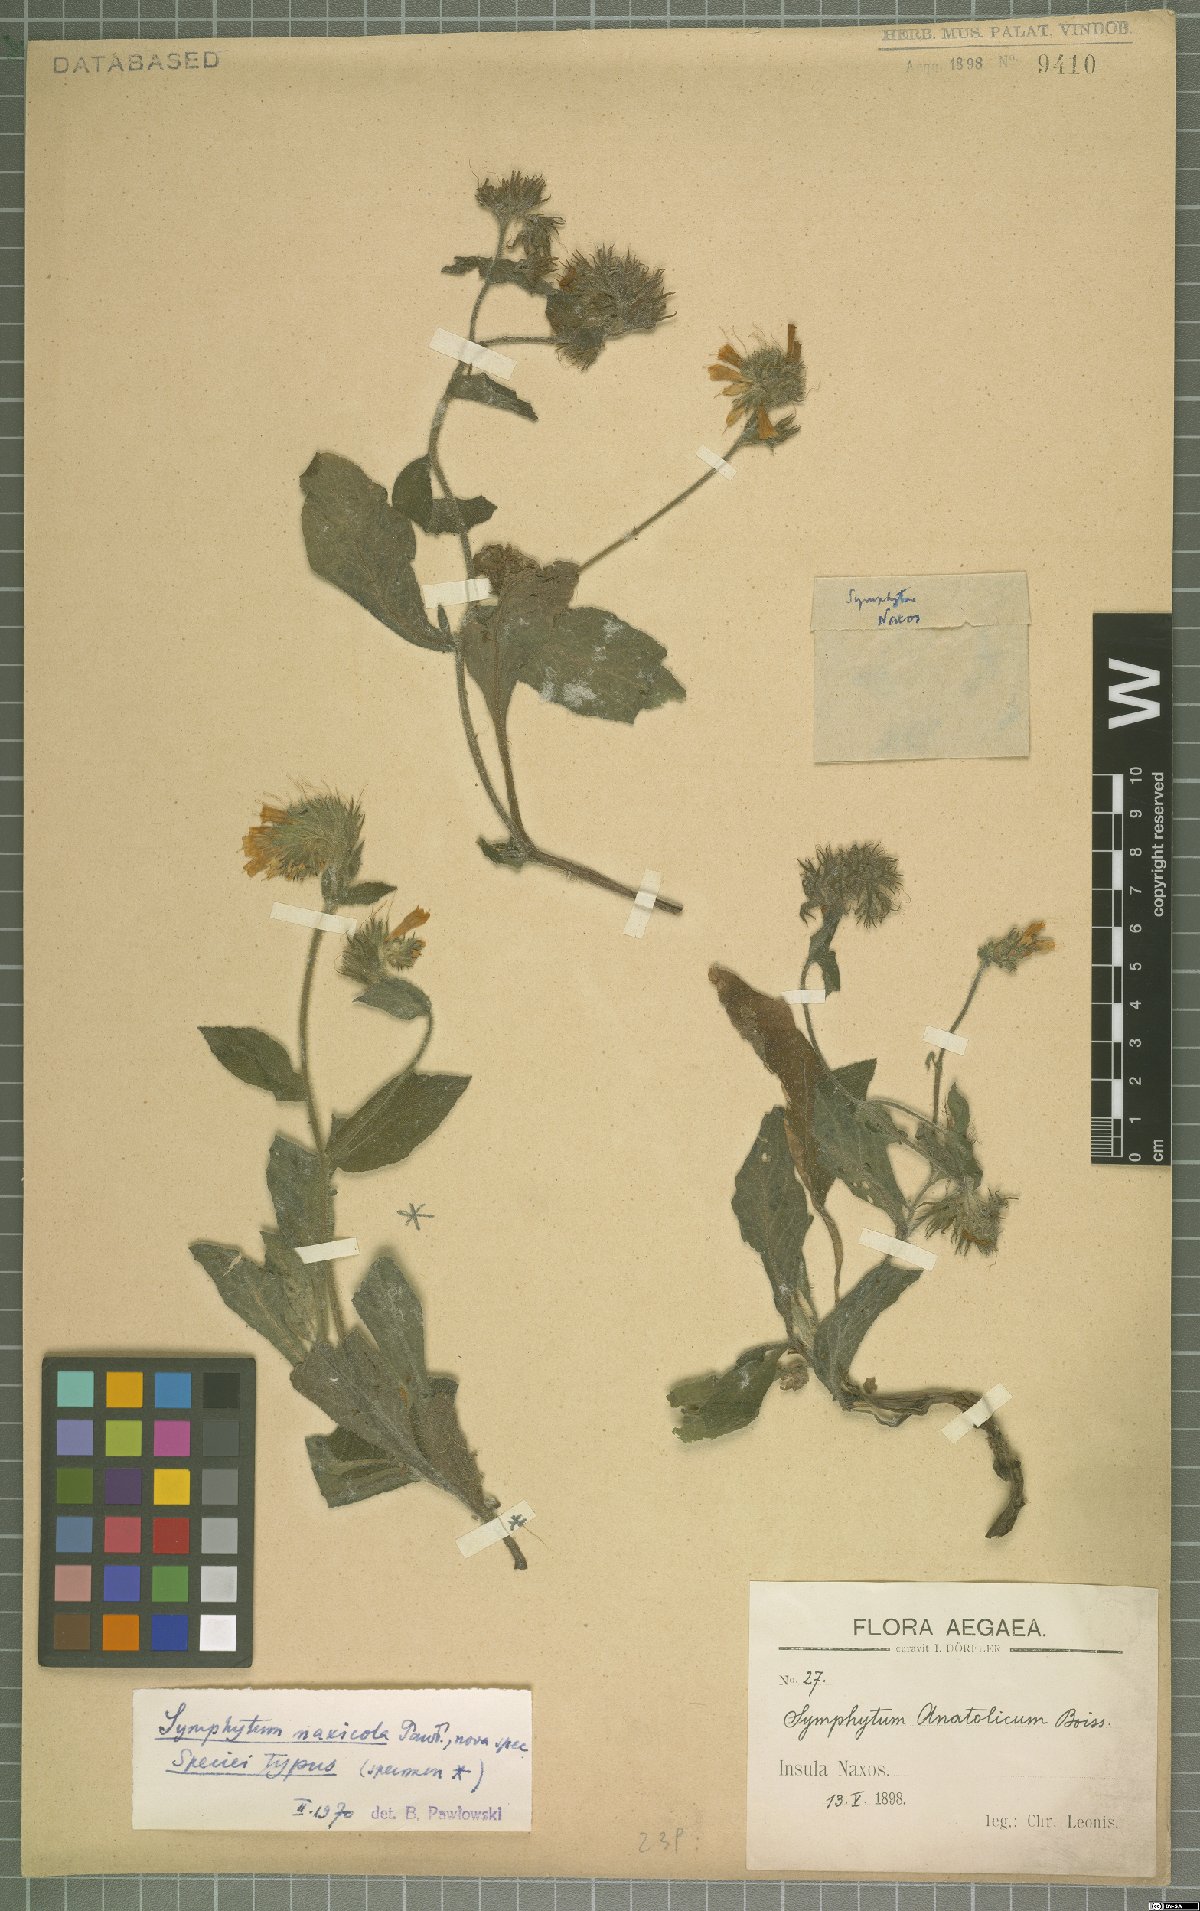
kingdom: Plantae
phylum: Tracheophyta
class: Magnoliopsida
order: Boraginales
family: Boraginaceae
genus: Symphytum
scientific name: Symphytum davisii
